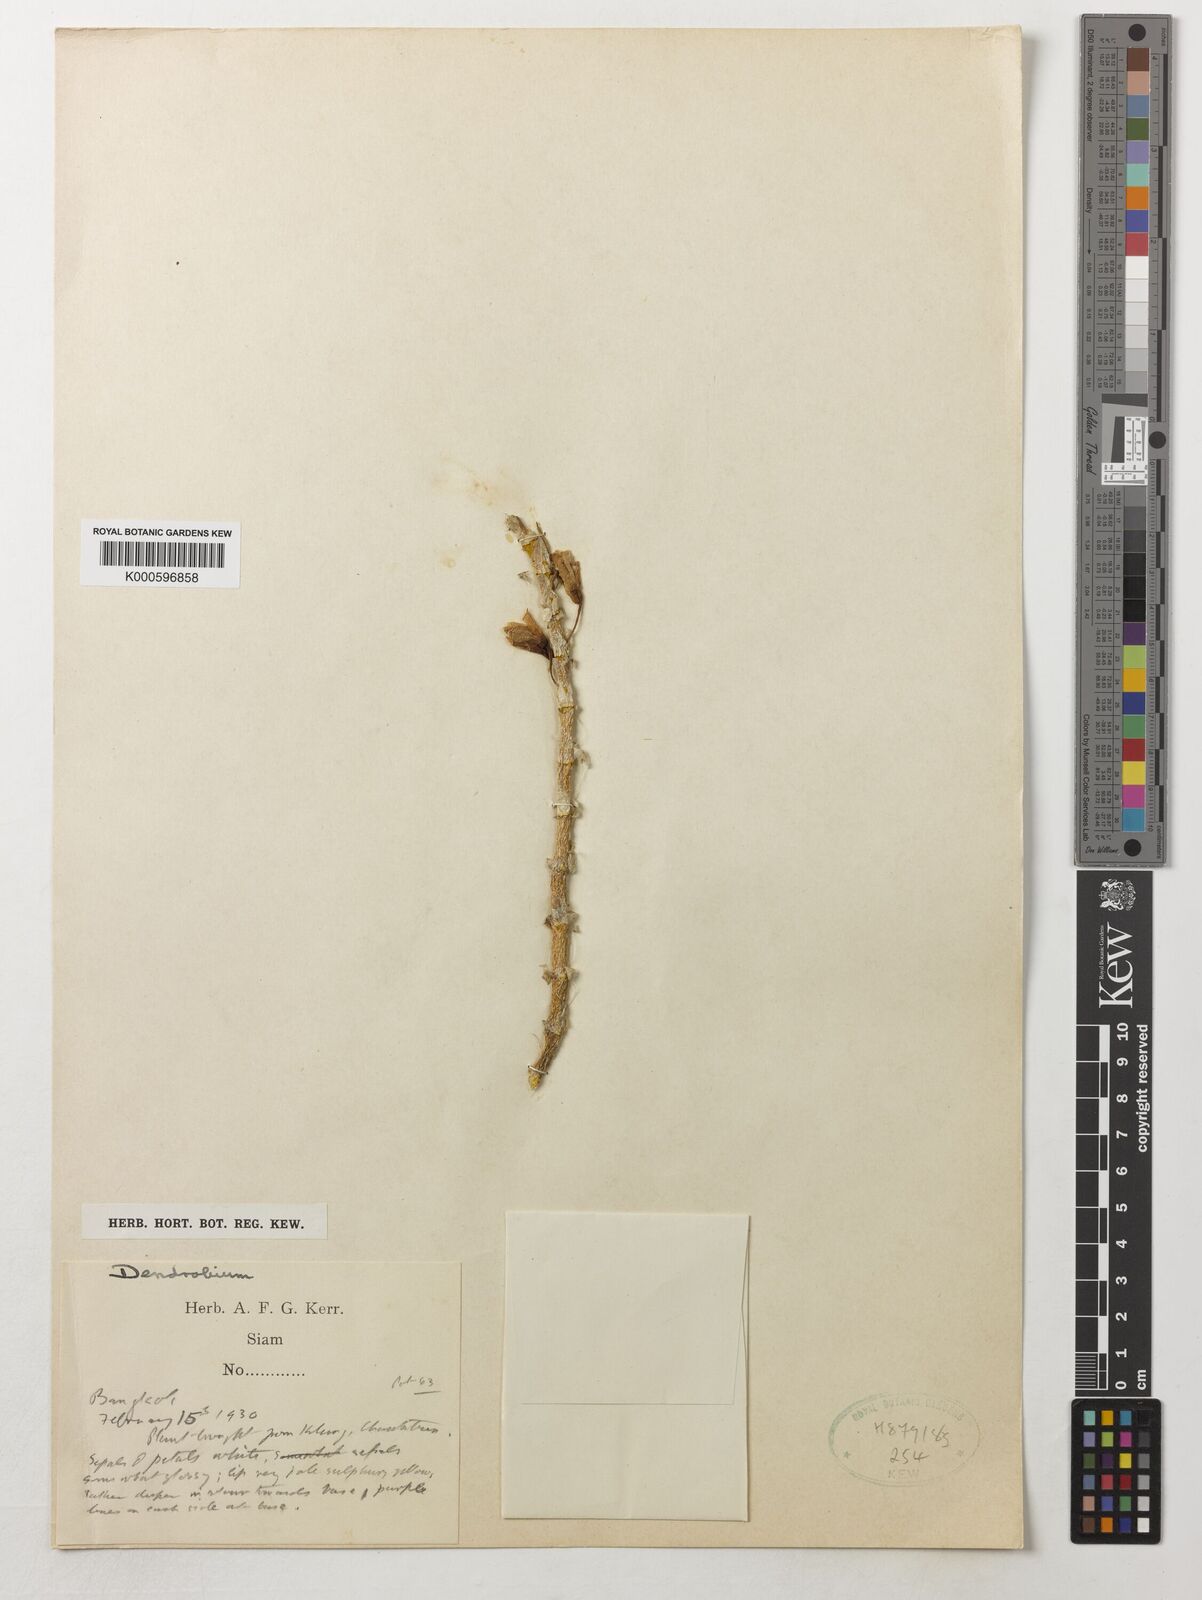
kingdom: Plantae
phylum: Tracheophyta
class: Liliopsida
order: Asparagales
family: Orchidaceae
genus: Dendrobium
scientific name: Dendrobium
